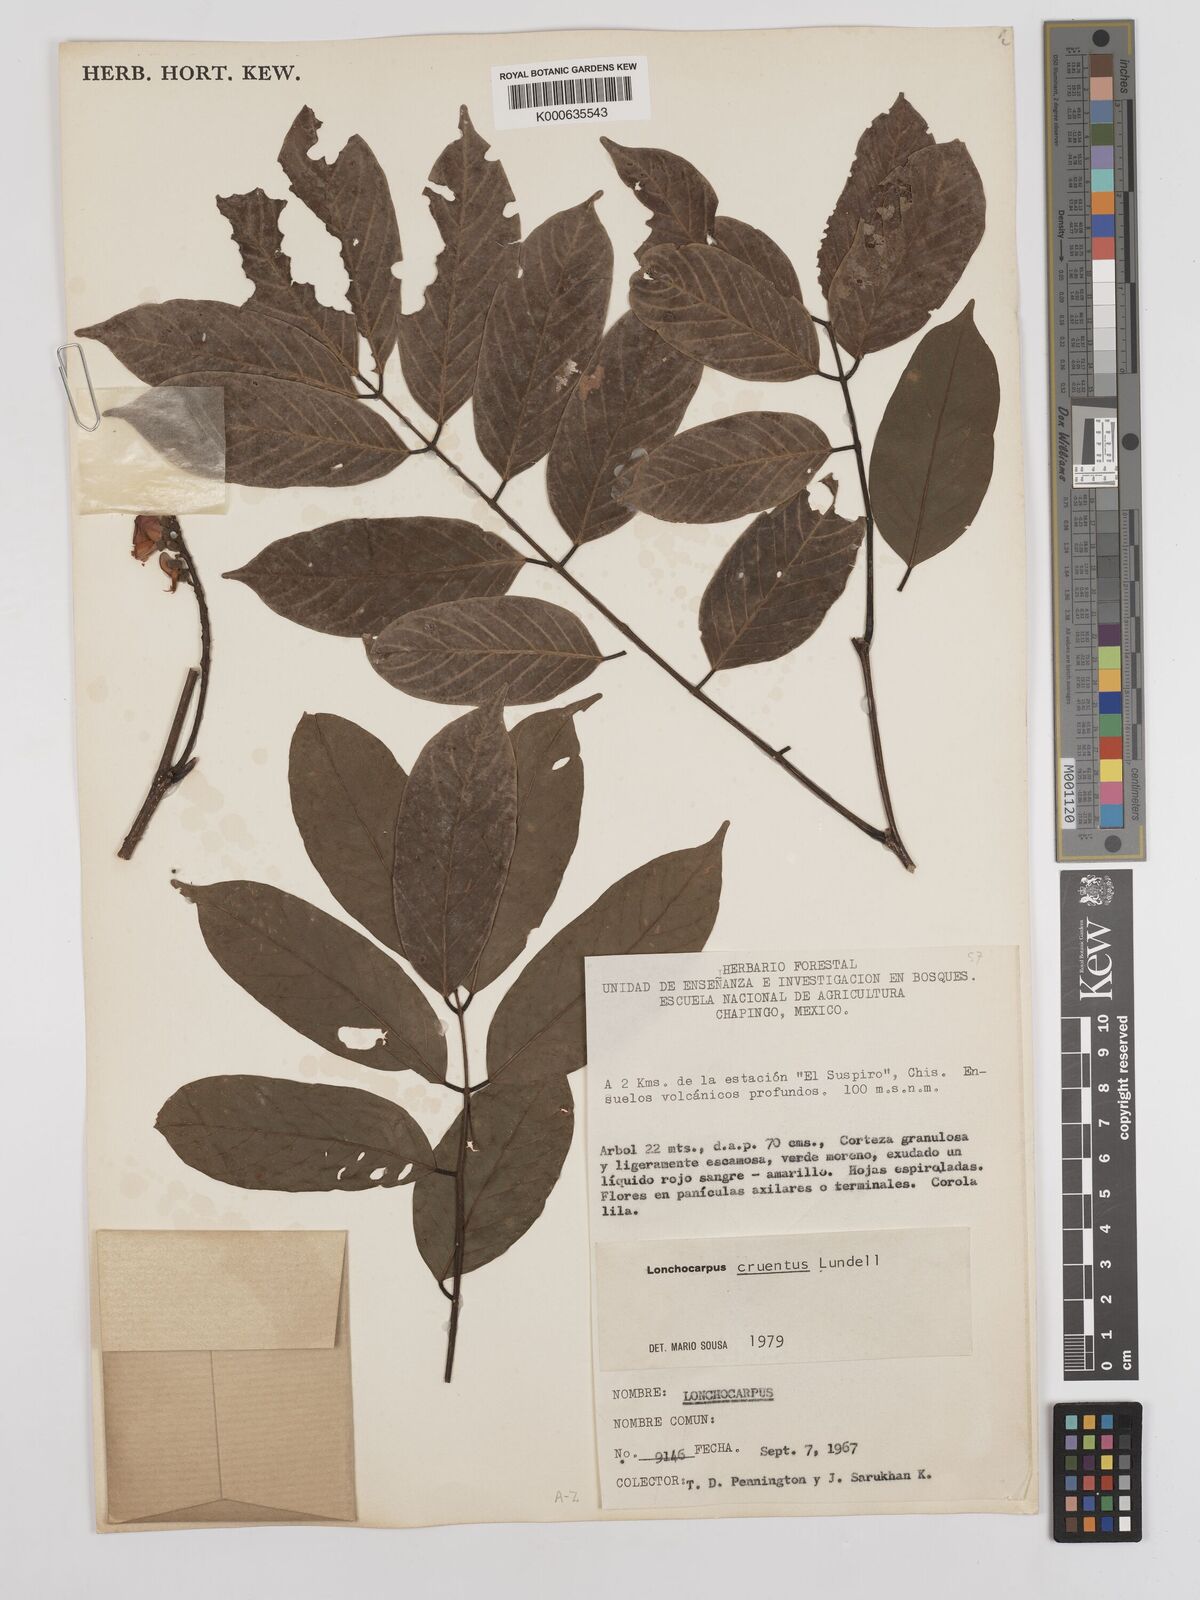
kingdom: Plantae
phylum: Tracheophyta
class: Magnoliopsida
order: Fabales
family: Fabaceae
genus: Lonchocarpus
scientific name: Lonchocarpus cruentus
